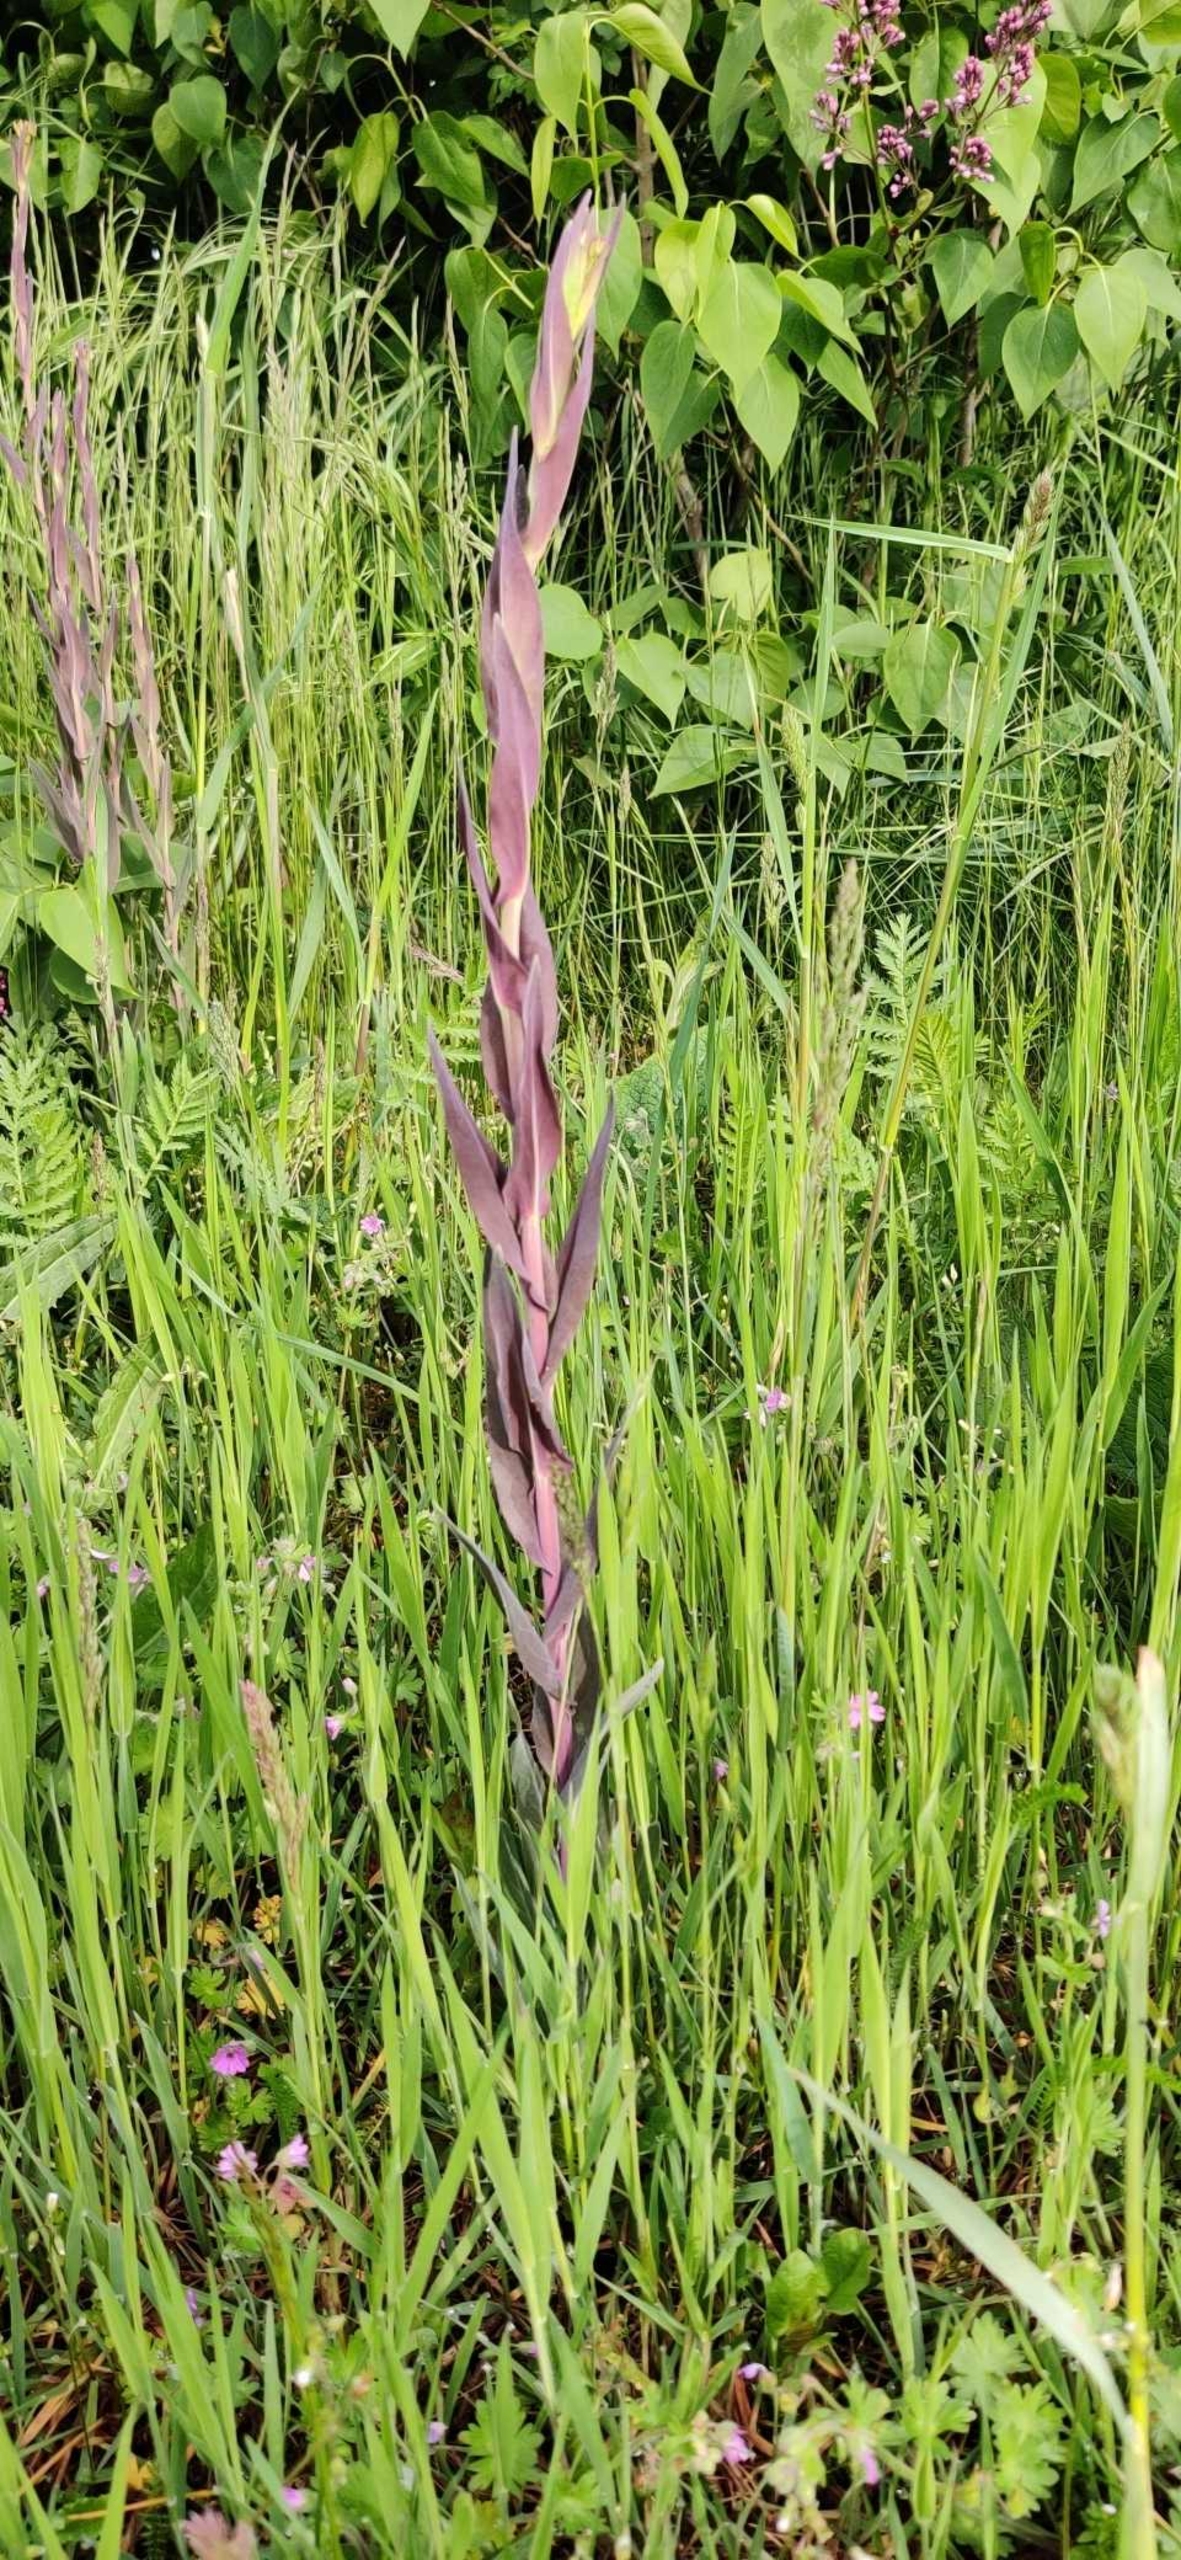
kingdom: Plantae
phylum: Tracheophyta
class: Magnoliopsida
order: Brassicales
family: Brassicaceae
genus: Turritis
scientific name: Turritis glabra
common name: Tårnurt
